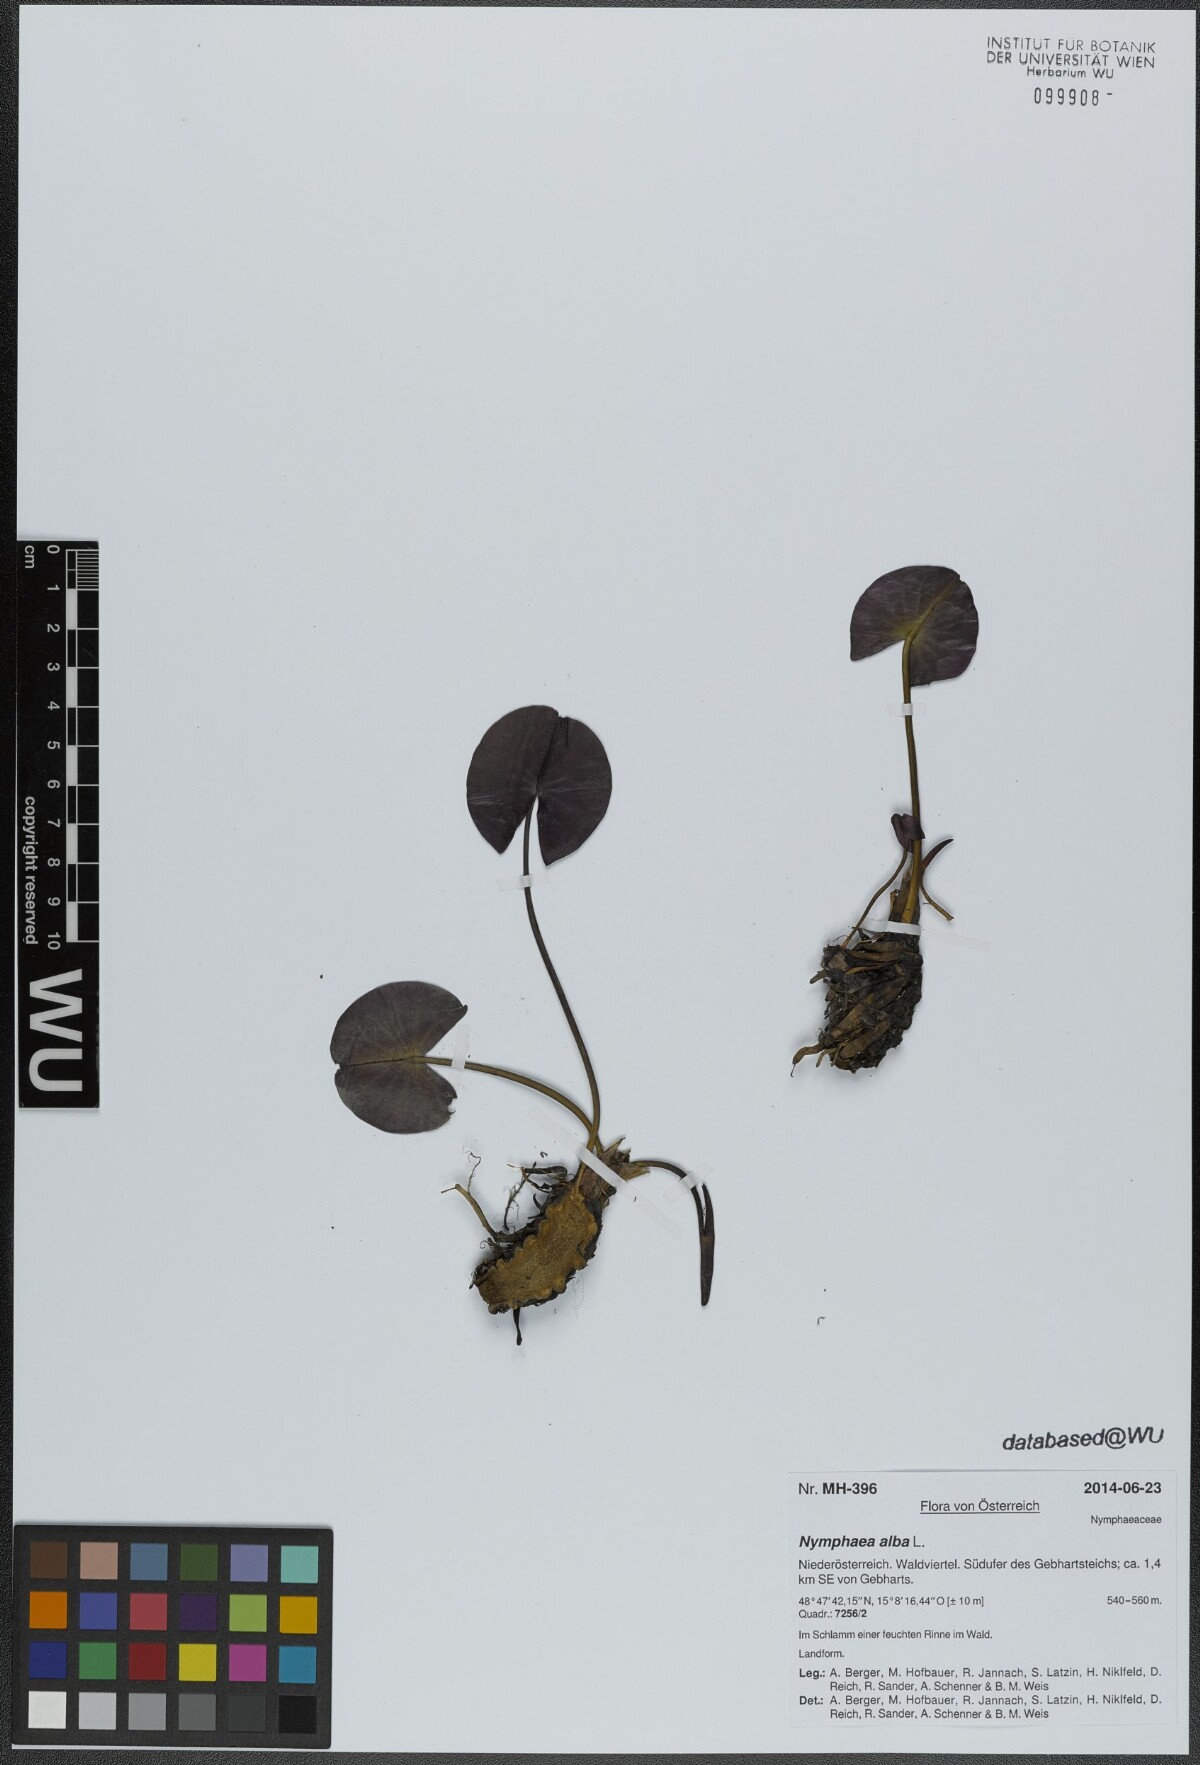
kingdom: Plantae
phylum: Tracheophyta
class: Magnoliopsida
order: Nymphaeales
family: Nymphaeaceae
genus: Nymphaea
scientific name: Nymphaea alba
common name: White water-lily
